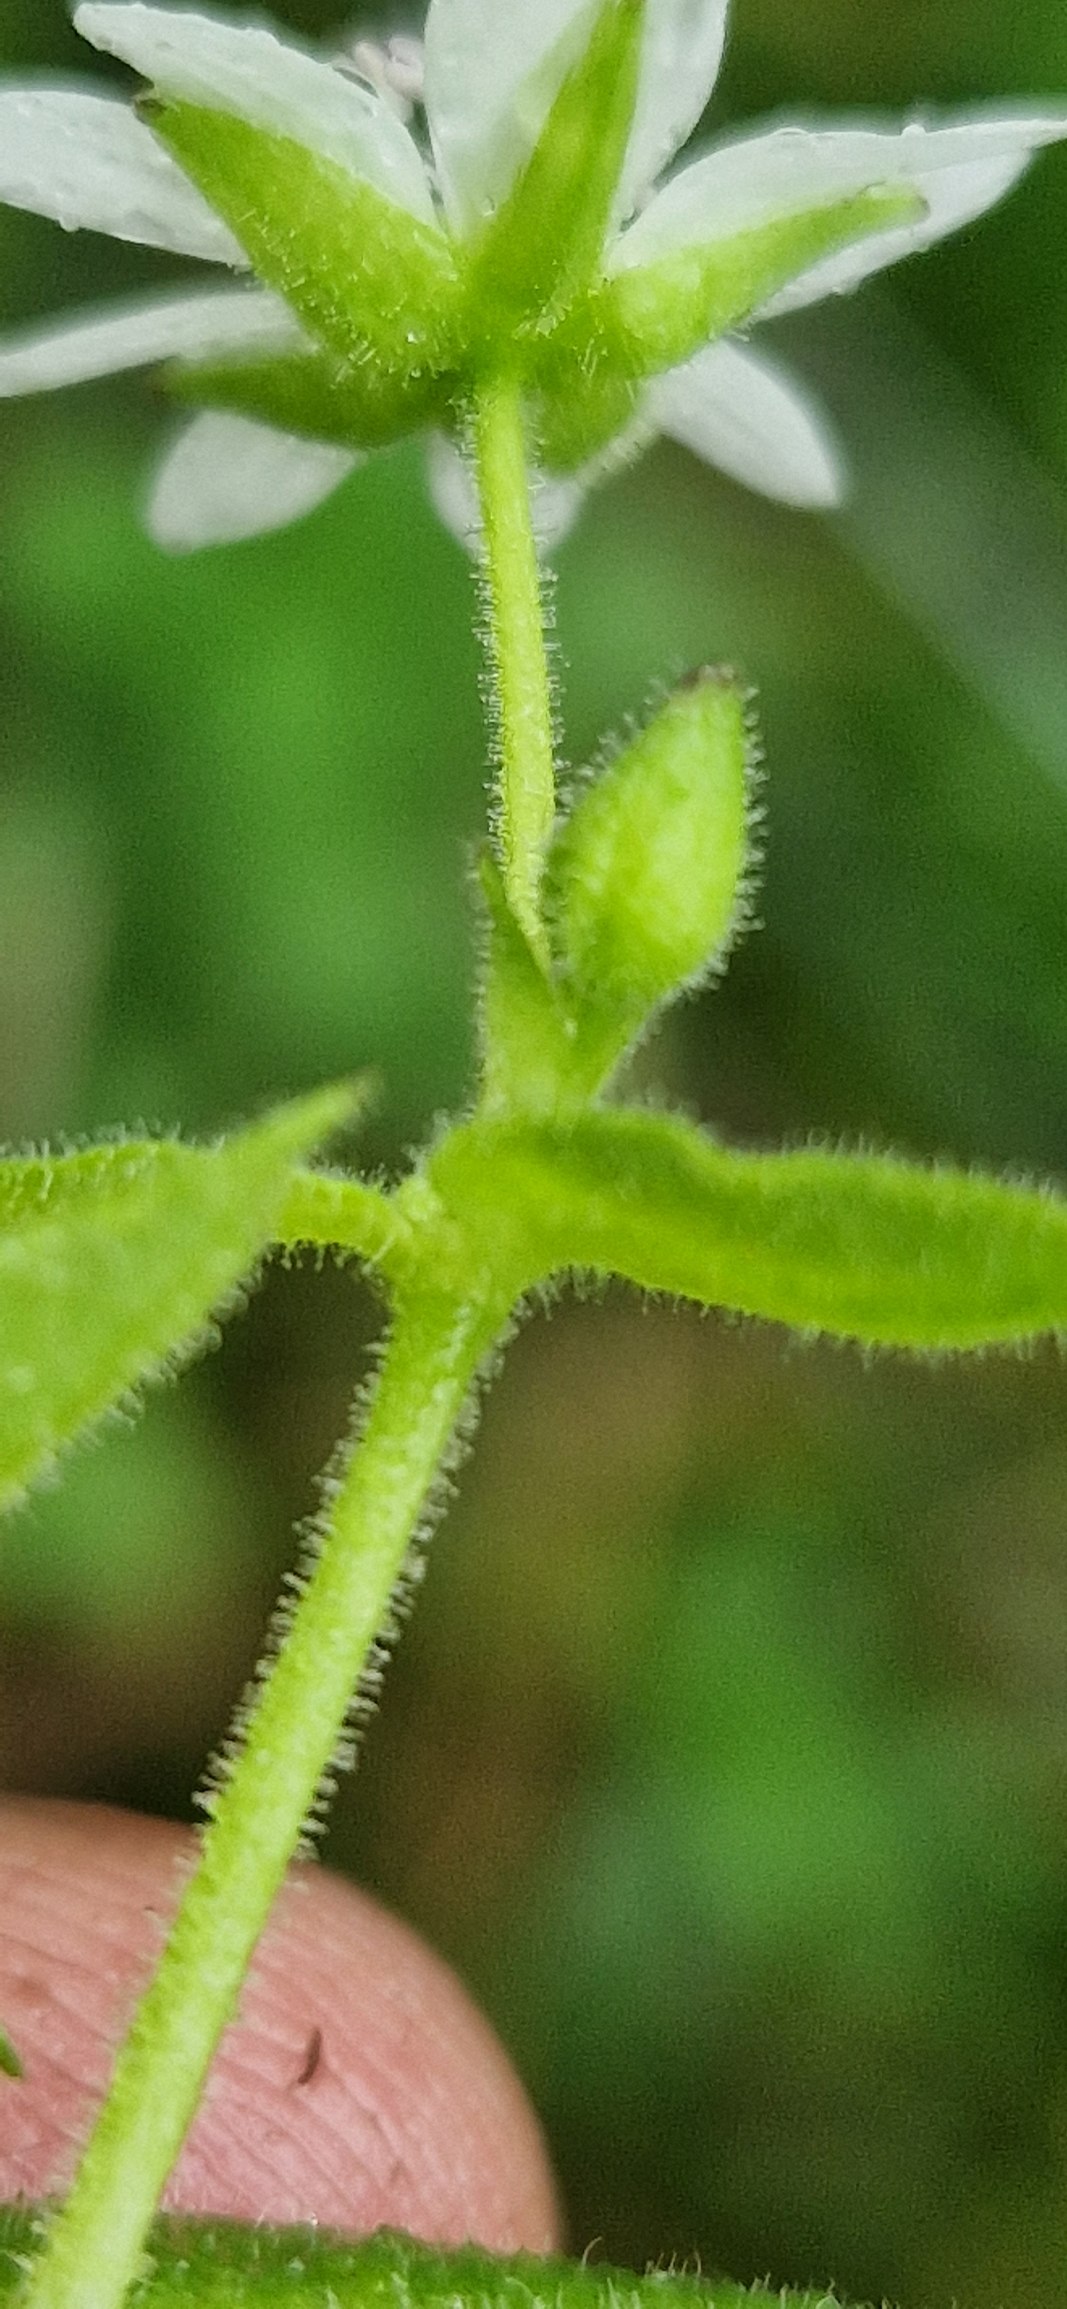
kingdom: Plantae
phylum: Tracheophyta
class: Magnoliopsida
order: Caryophyllales
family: Caryophyllaceae
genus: Stellaria
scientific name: Stellaria aquatica
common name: Kløvkrone
